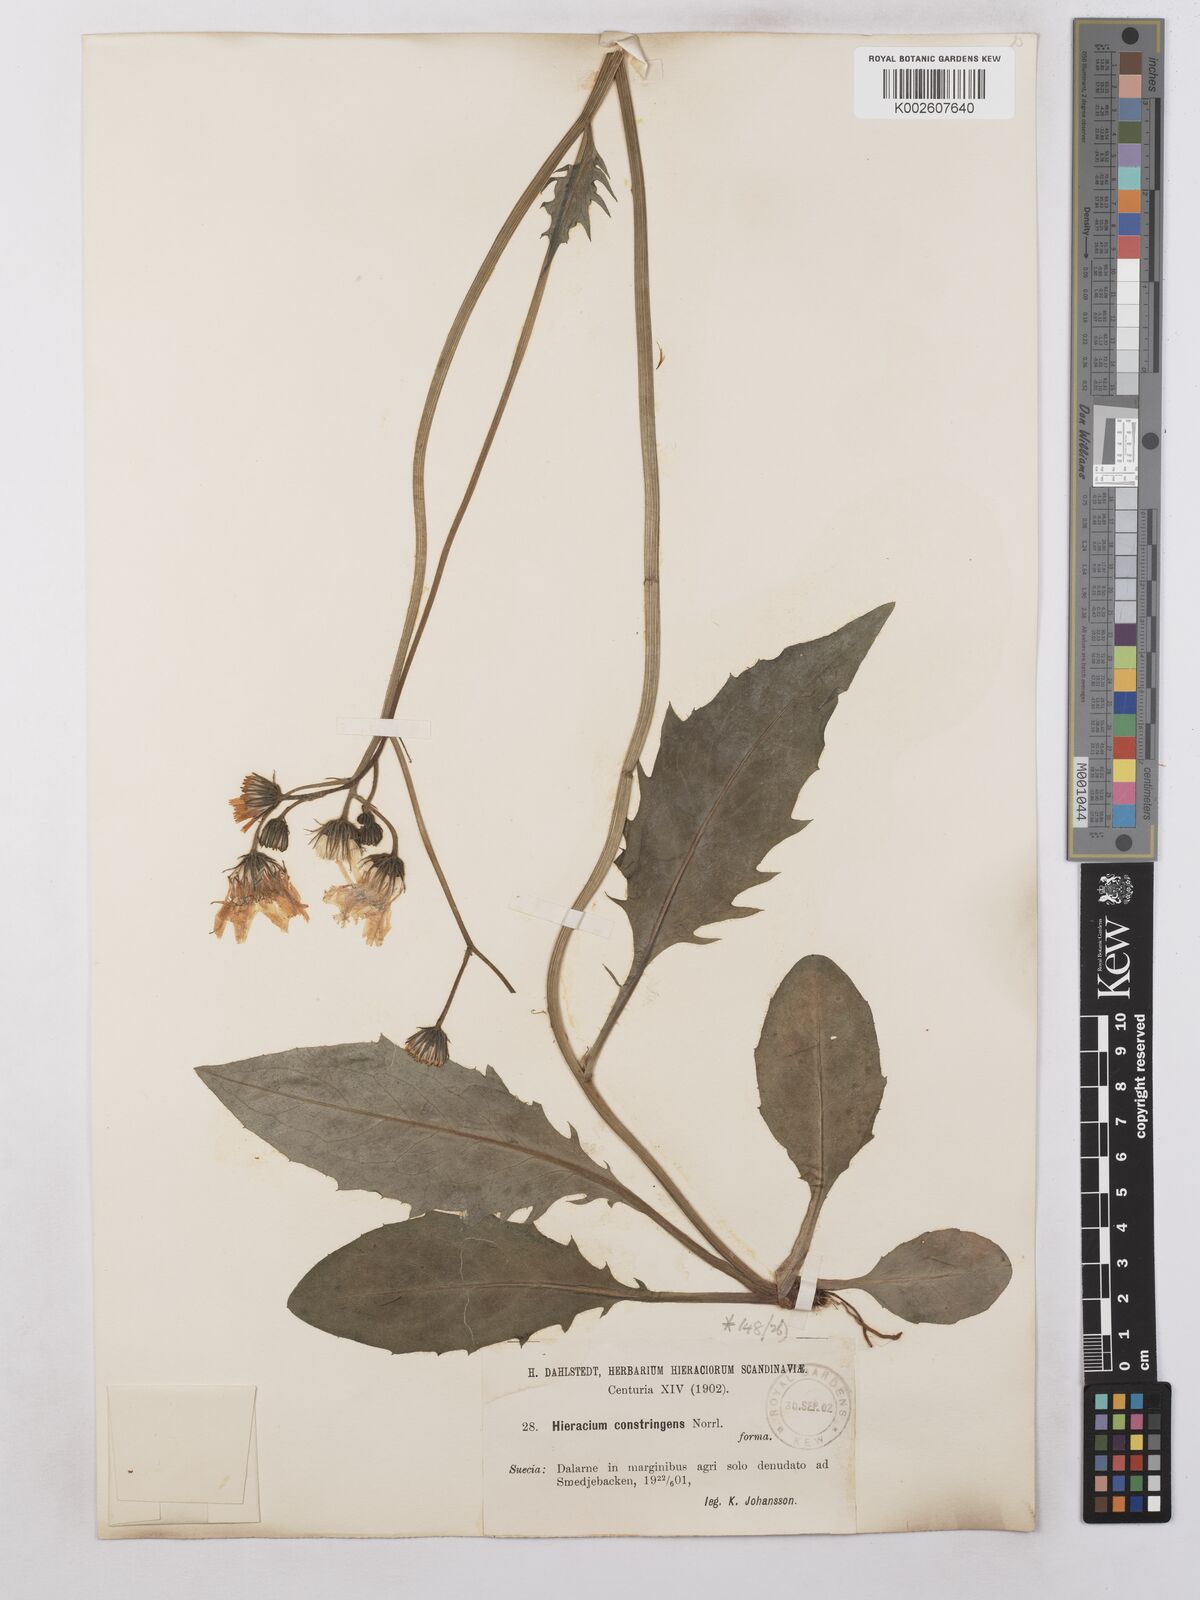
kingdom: Plantae
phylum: Tracheophyta
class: Magnoliopsida
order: Asterales
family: Asteraceae
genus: Hieracium
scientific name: Hieracium subramosum
